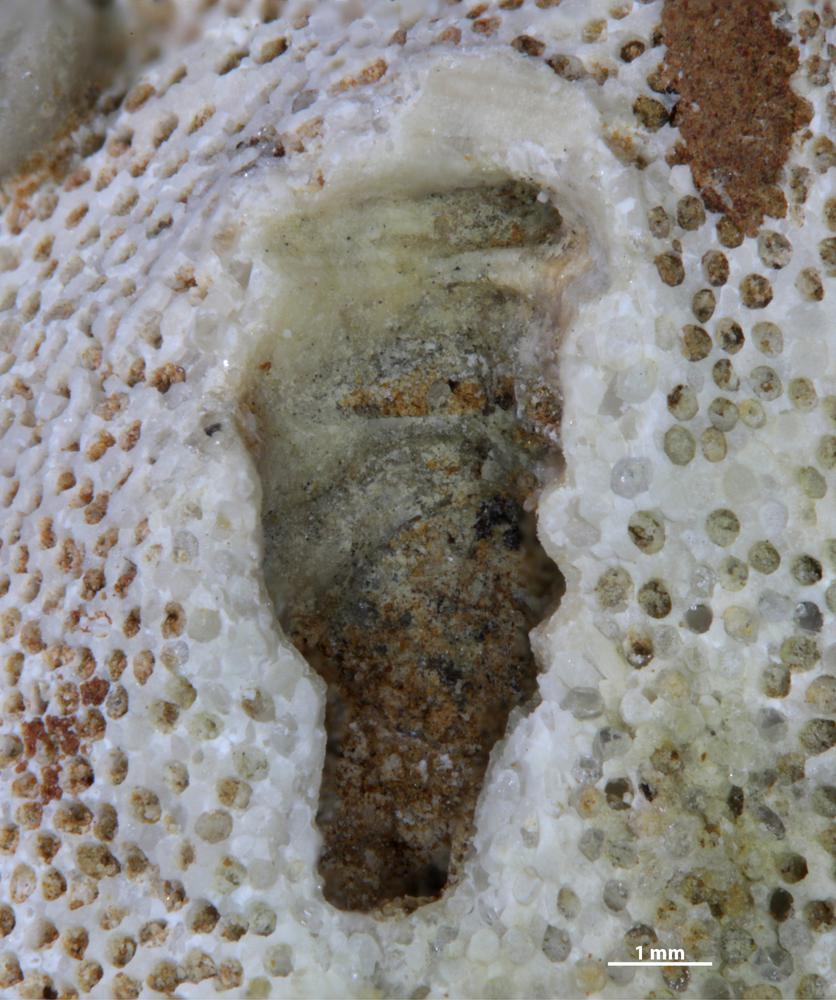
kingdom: Animalia
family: Cornulitidae
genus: Cornulites
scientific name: Cornulites
